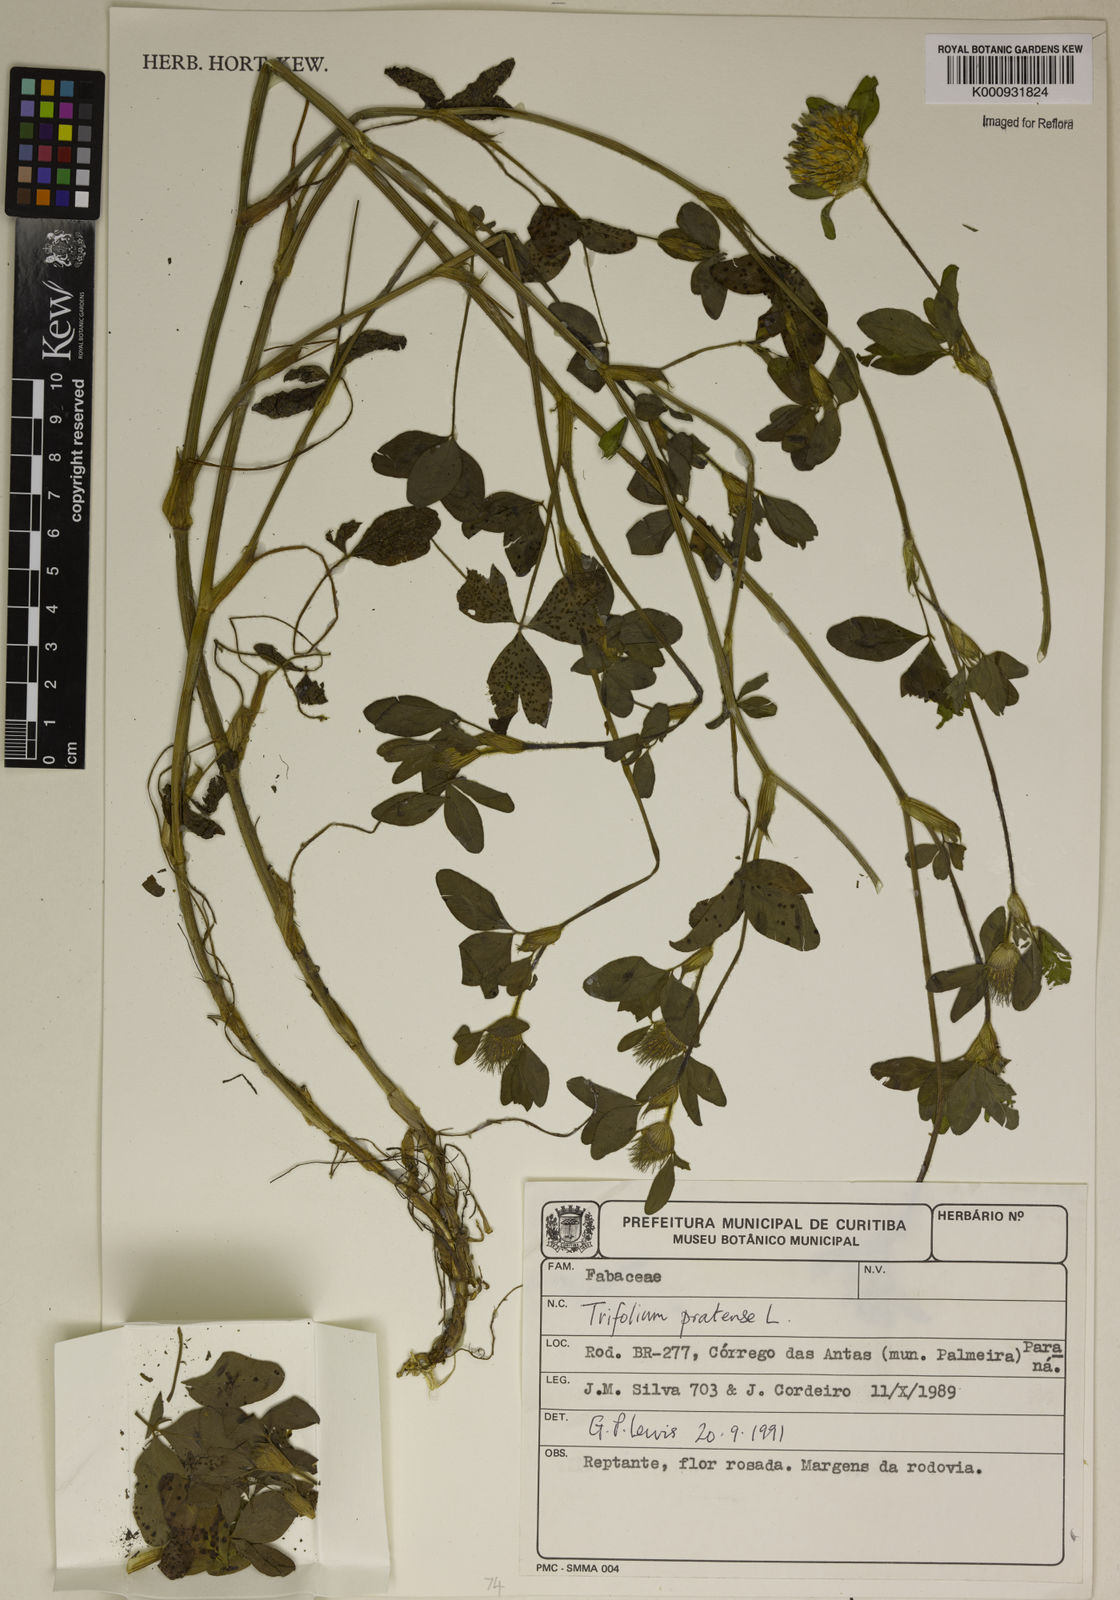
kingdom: Plantae
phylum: Tracheophyta
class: Magnoliopsida
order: Fabales
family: Fabaceae
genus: Trifolium
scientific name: Trifolium pratense
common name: Red clover
